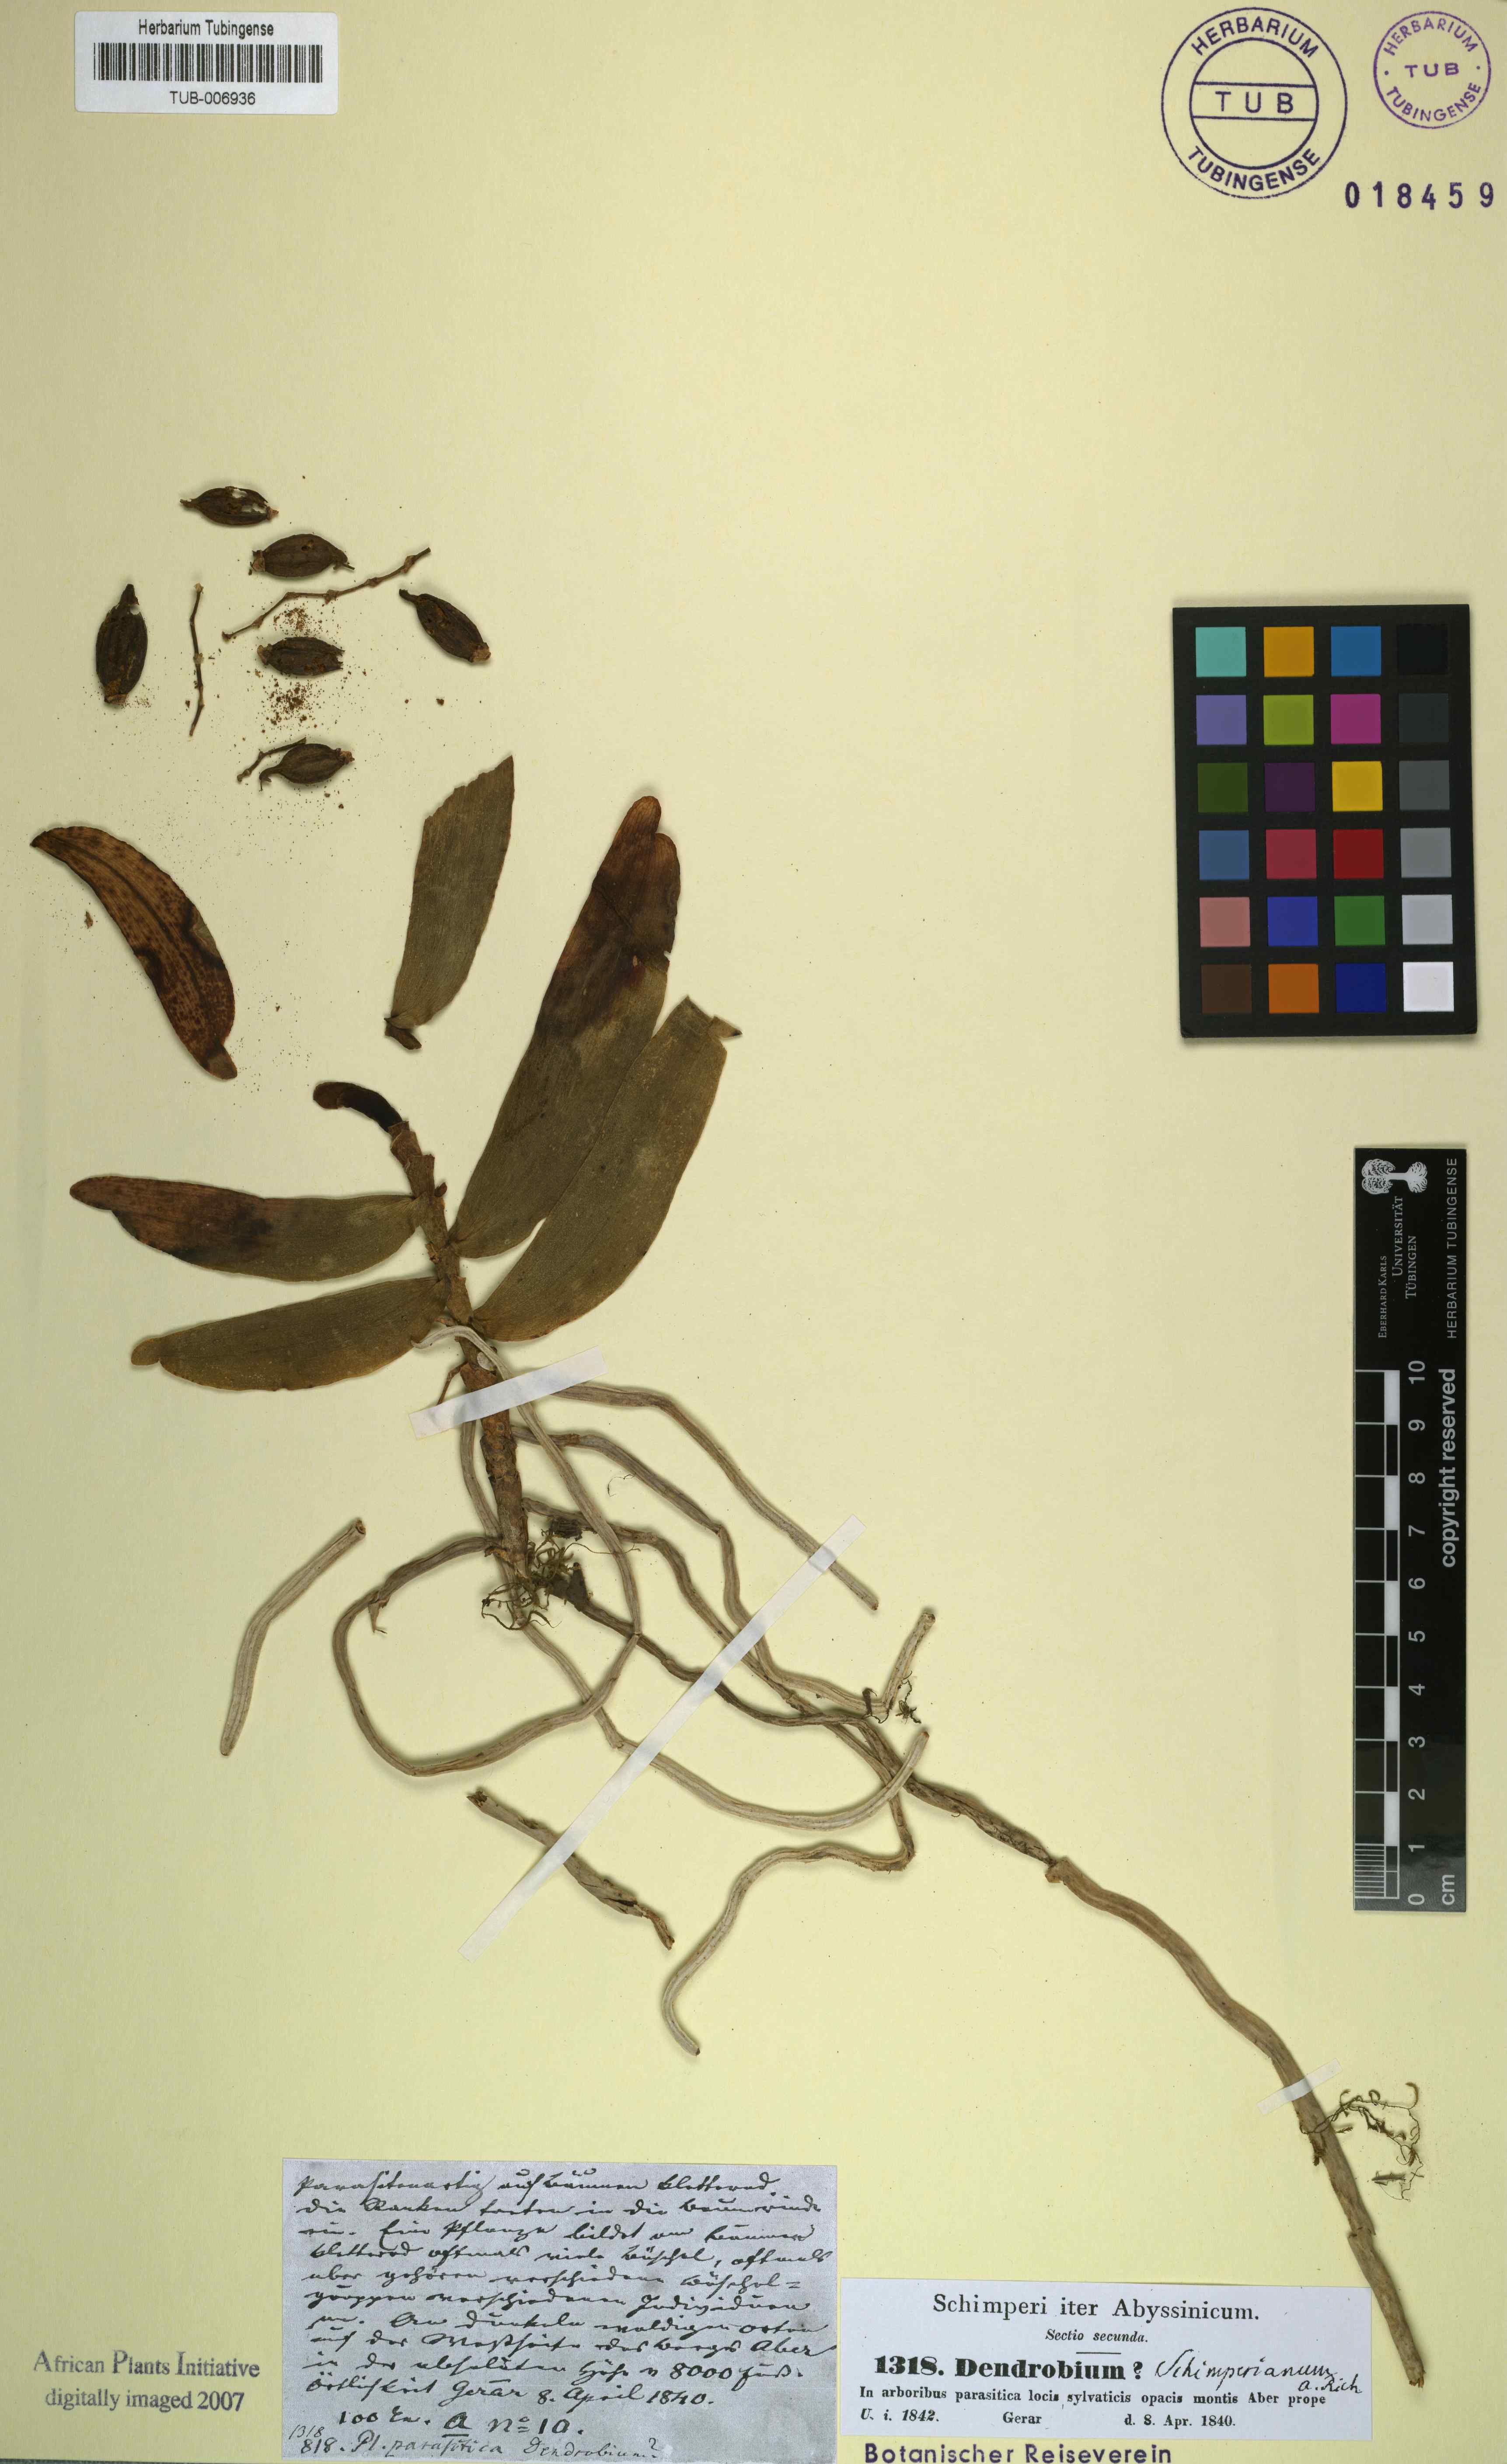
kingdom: Plantae
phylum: Tracheophyta
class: Liliopsida
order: Asparagales
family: Orchidaceae
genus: Rhipidoglossum
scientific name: Rhipidoglossum schimperianum
